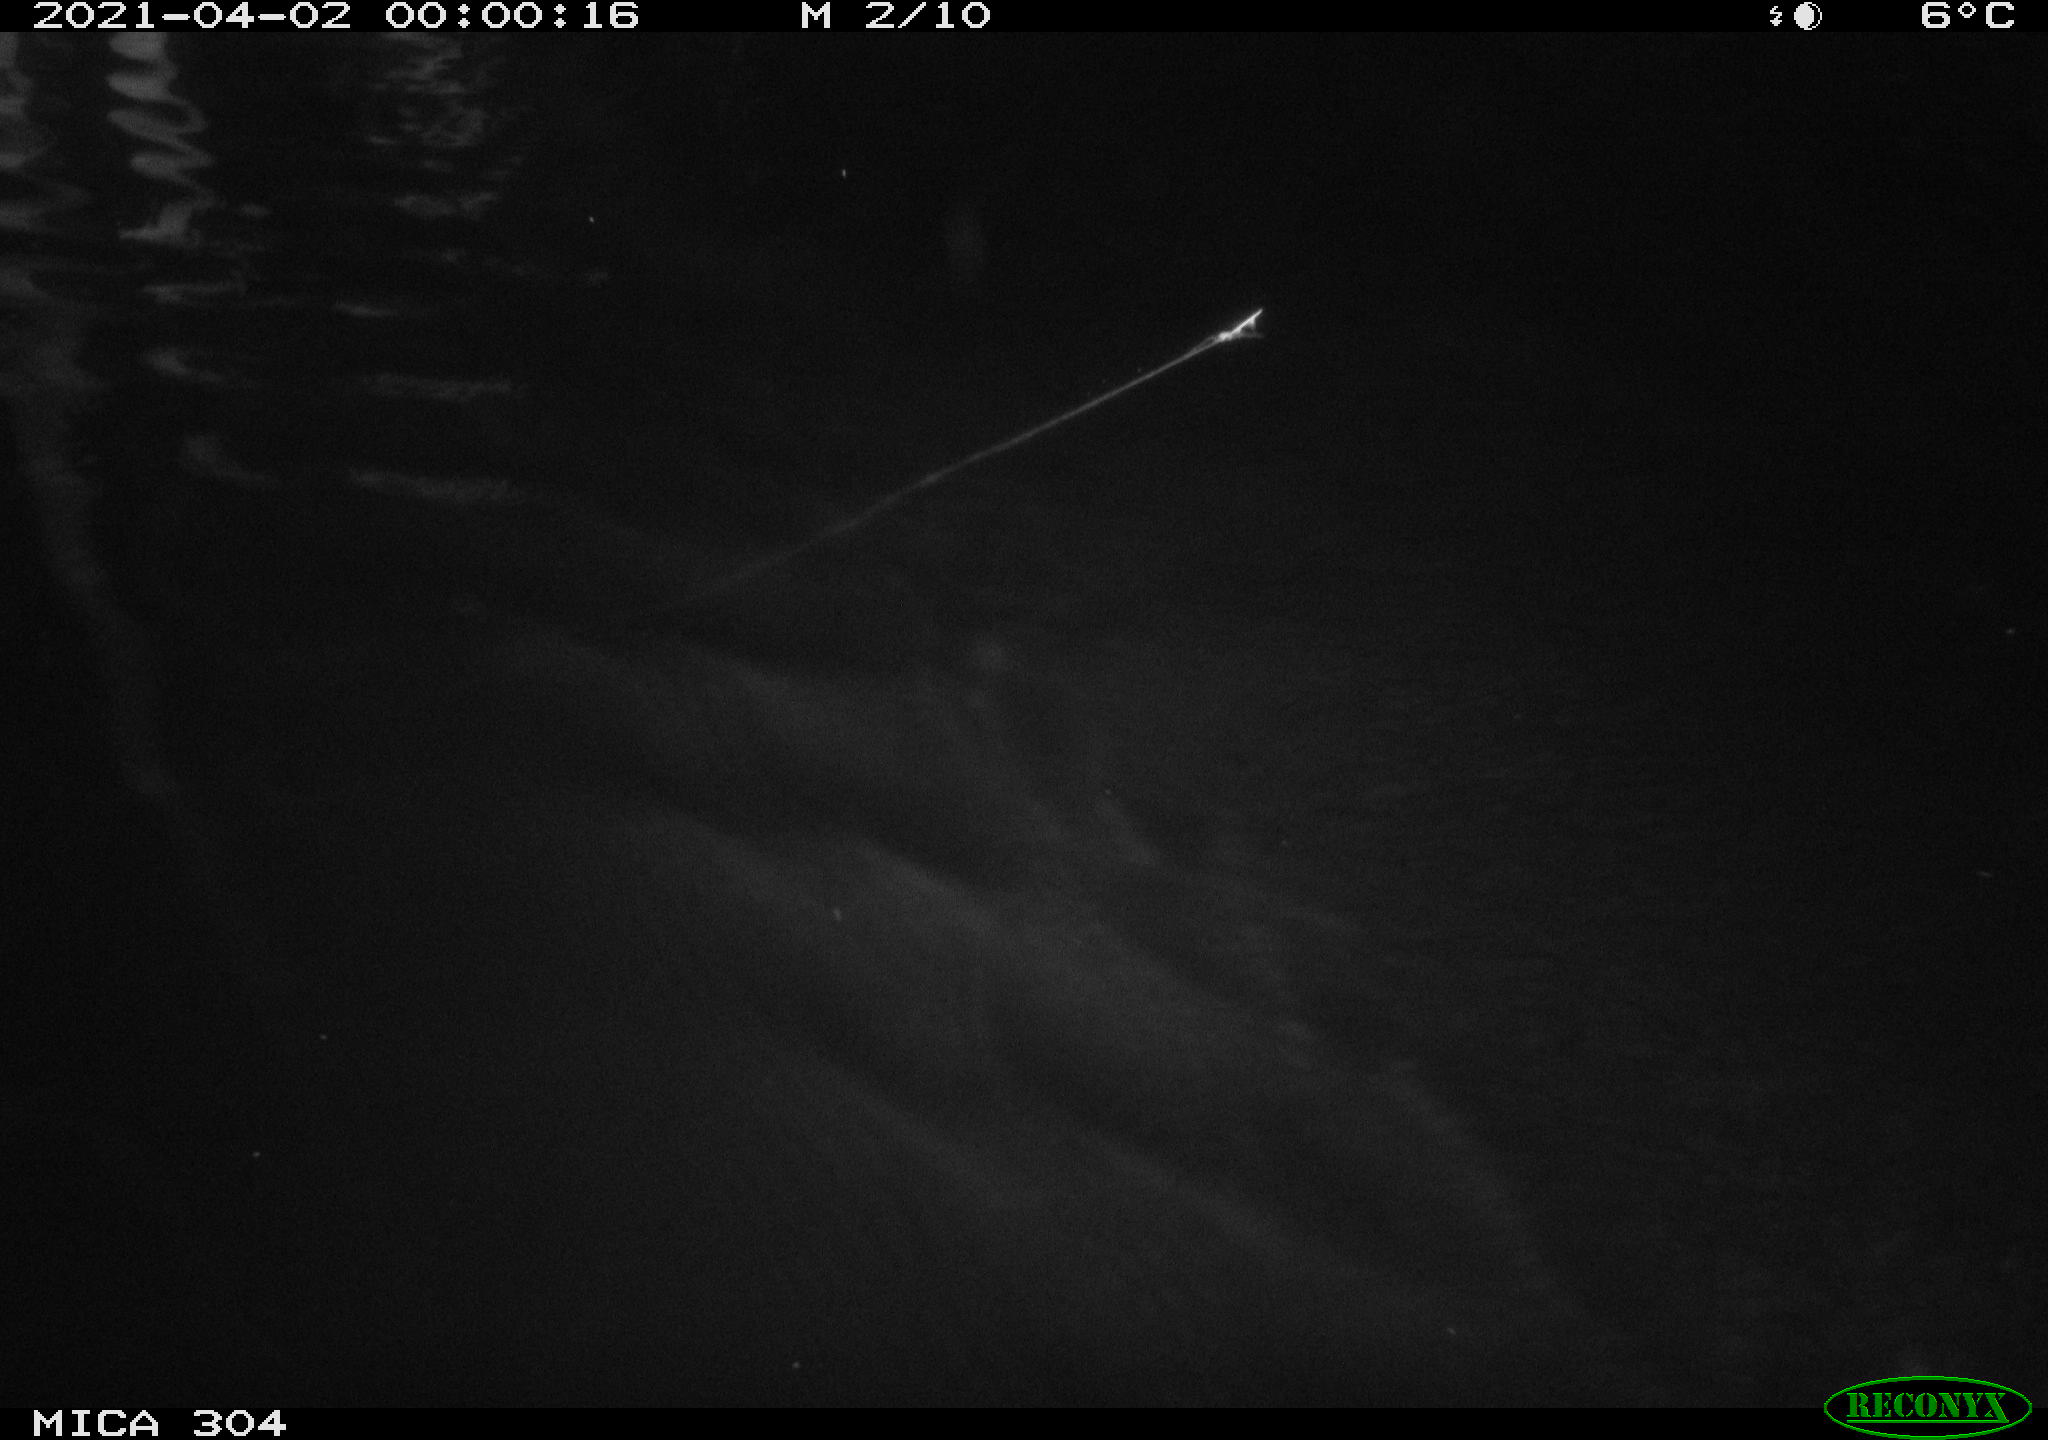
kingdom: Animalia
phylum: Chordata
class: Mammalia
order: Rodentia
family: Cricetidae
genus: Ondatra
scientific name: Ondatra zibethicus
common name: Muskrat
